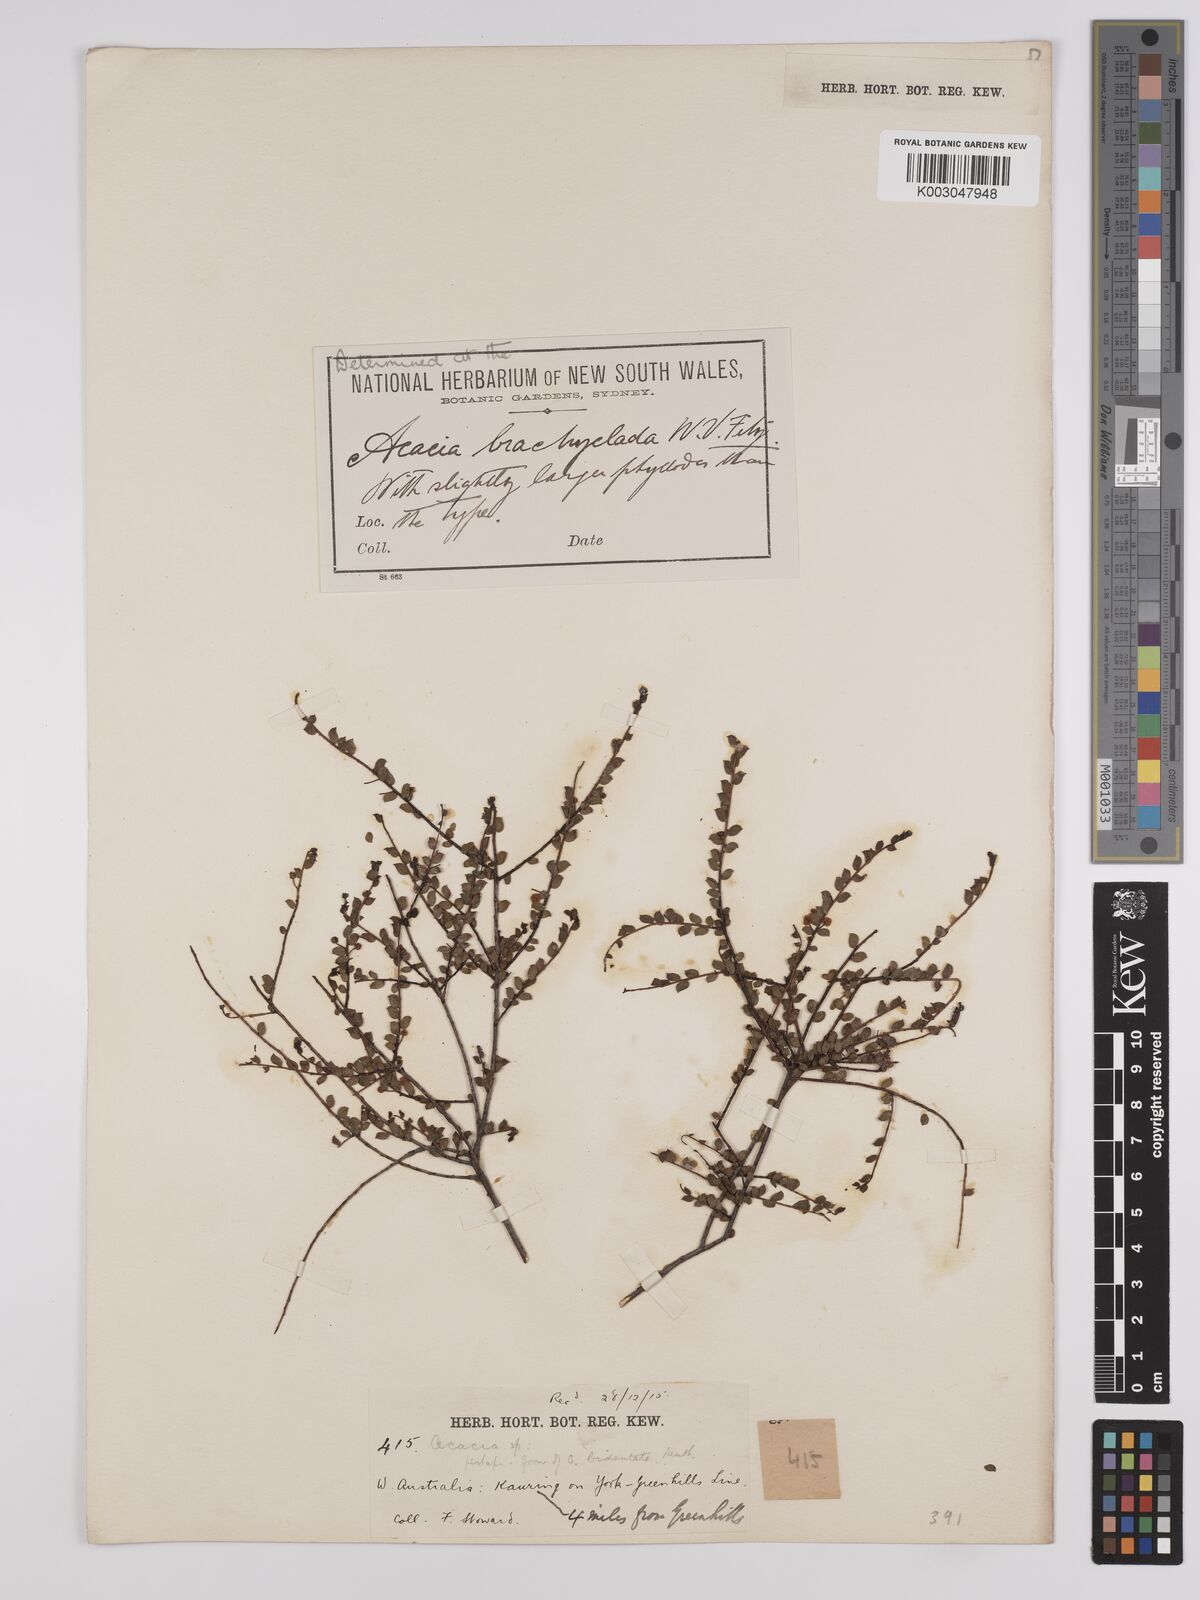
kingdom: Plantae
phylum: Tracheophyta
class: Magnoliopsida
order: Fabales
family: Fabaceae
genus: Acacia
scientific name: Acacia brachyclada
